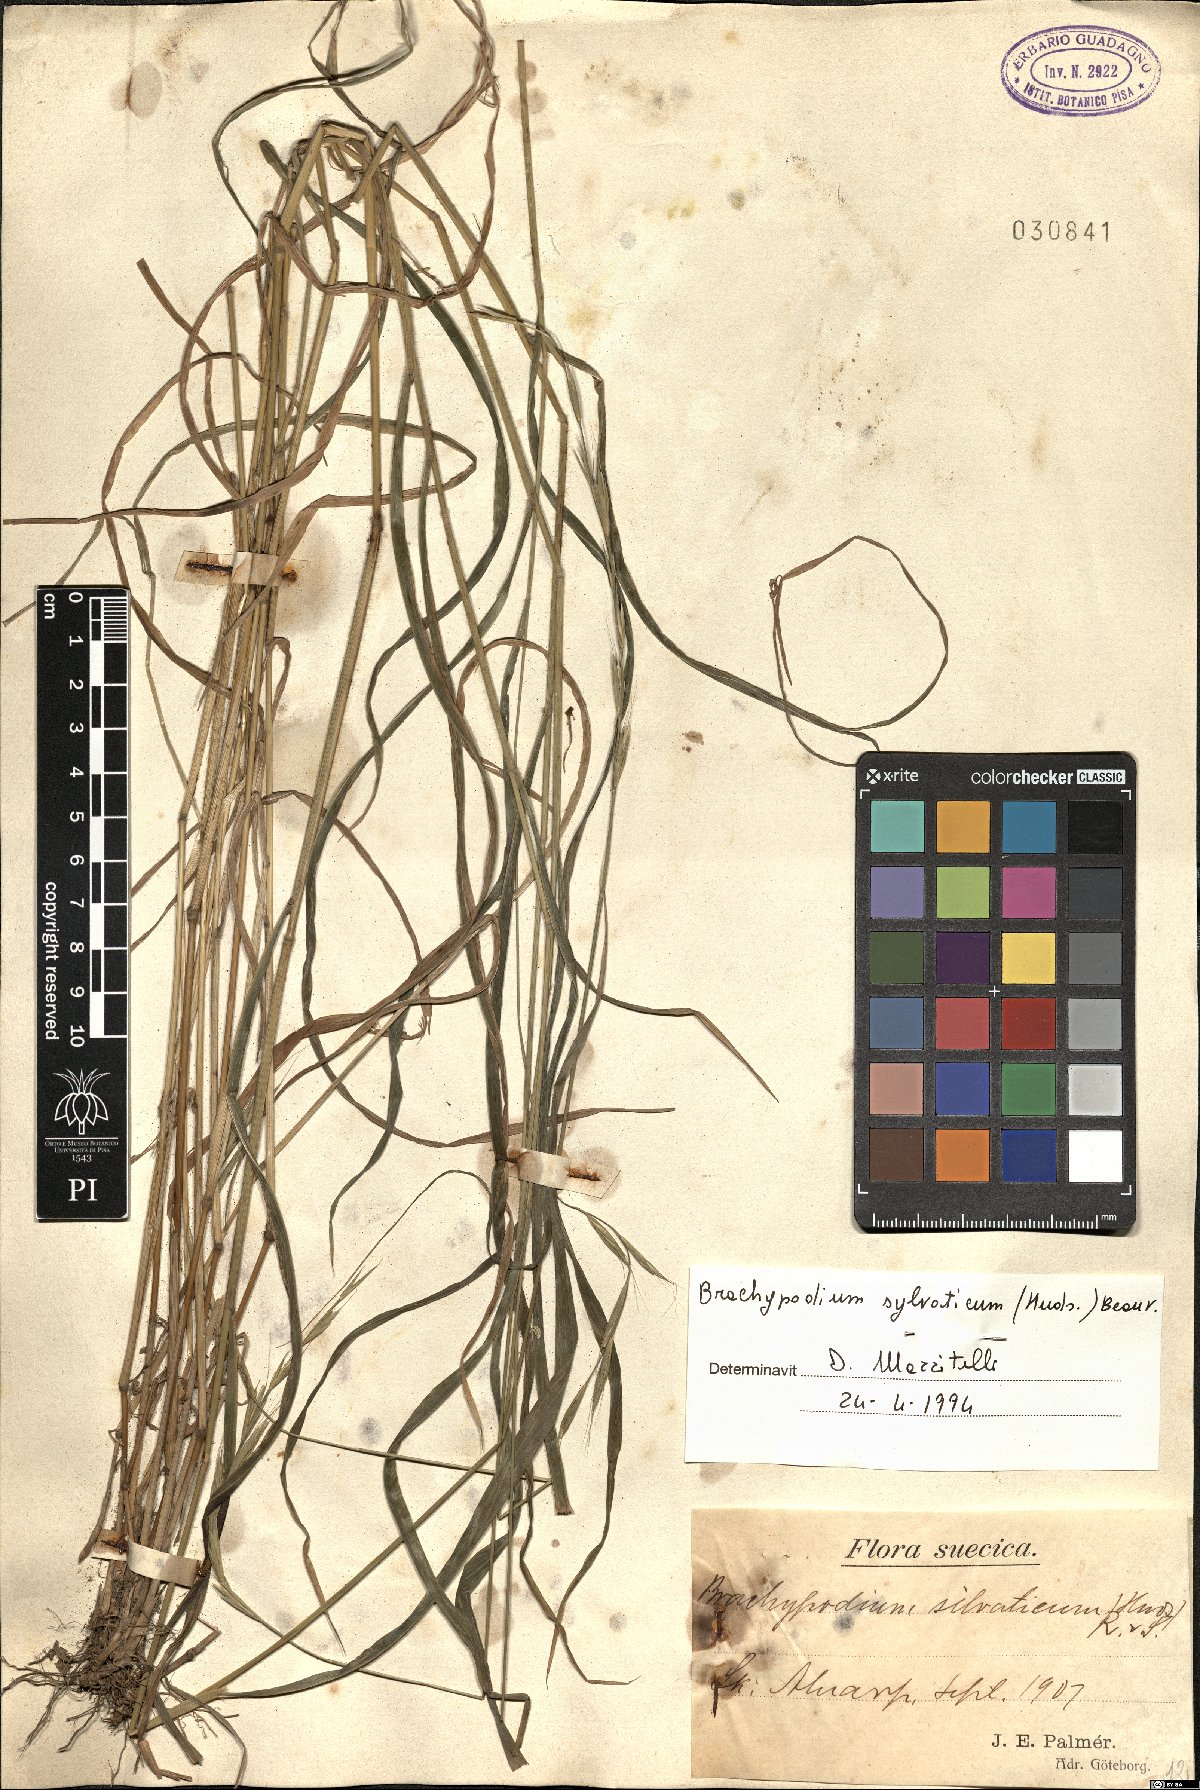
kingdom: Plantae
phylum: Tracheophyta
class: Liliopsida
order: Poales
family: Poaceae
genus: Brachypodium
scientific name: Brachypodium sylvaticum
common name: False-brome
